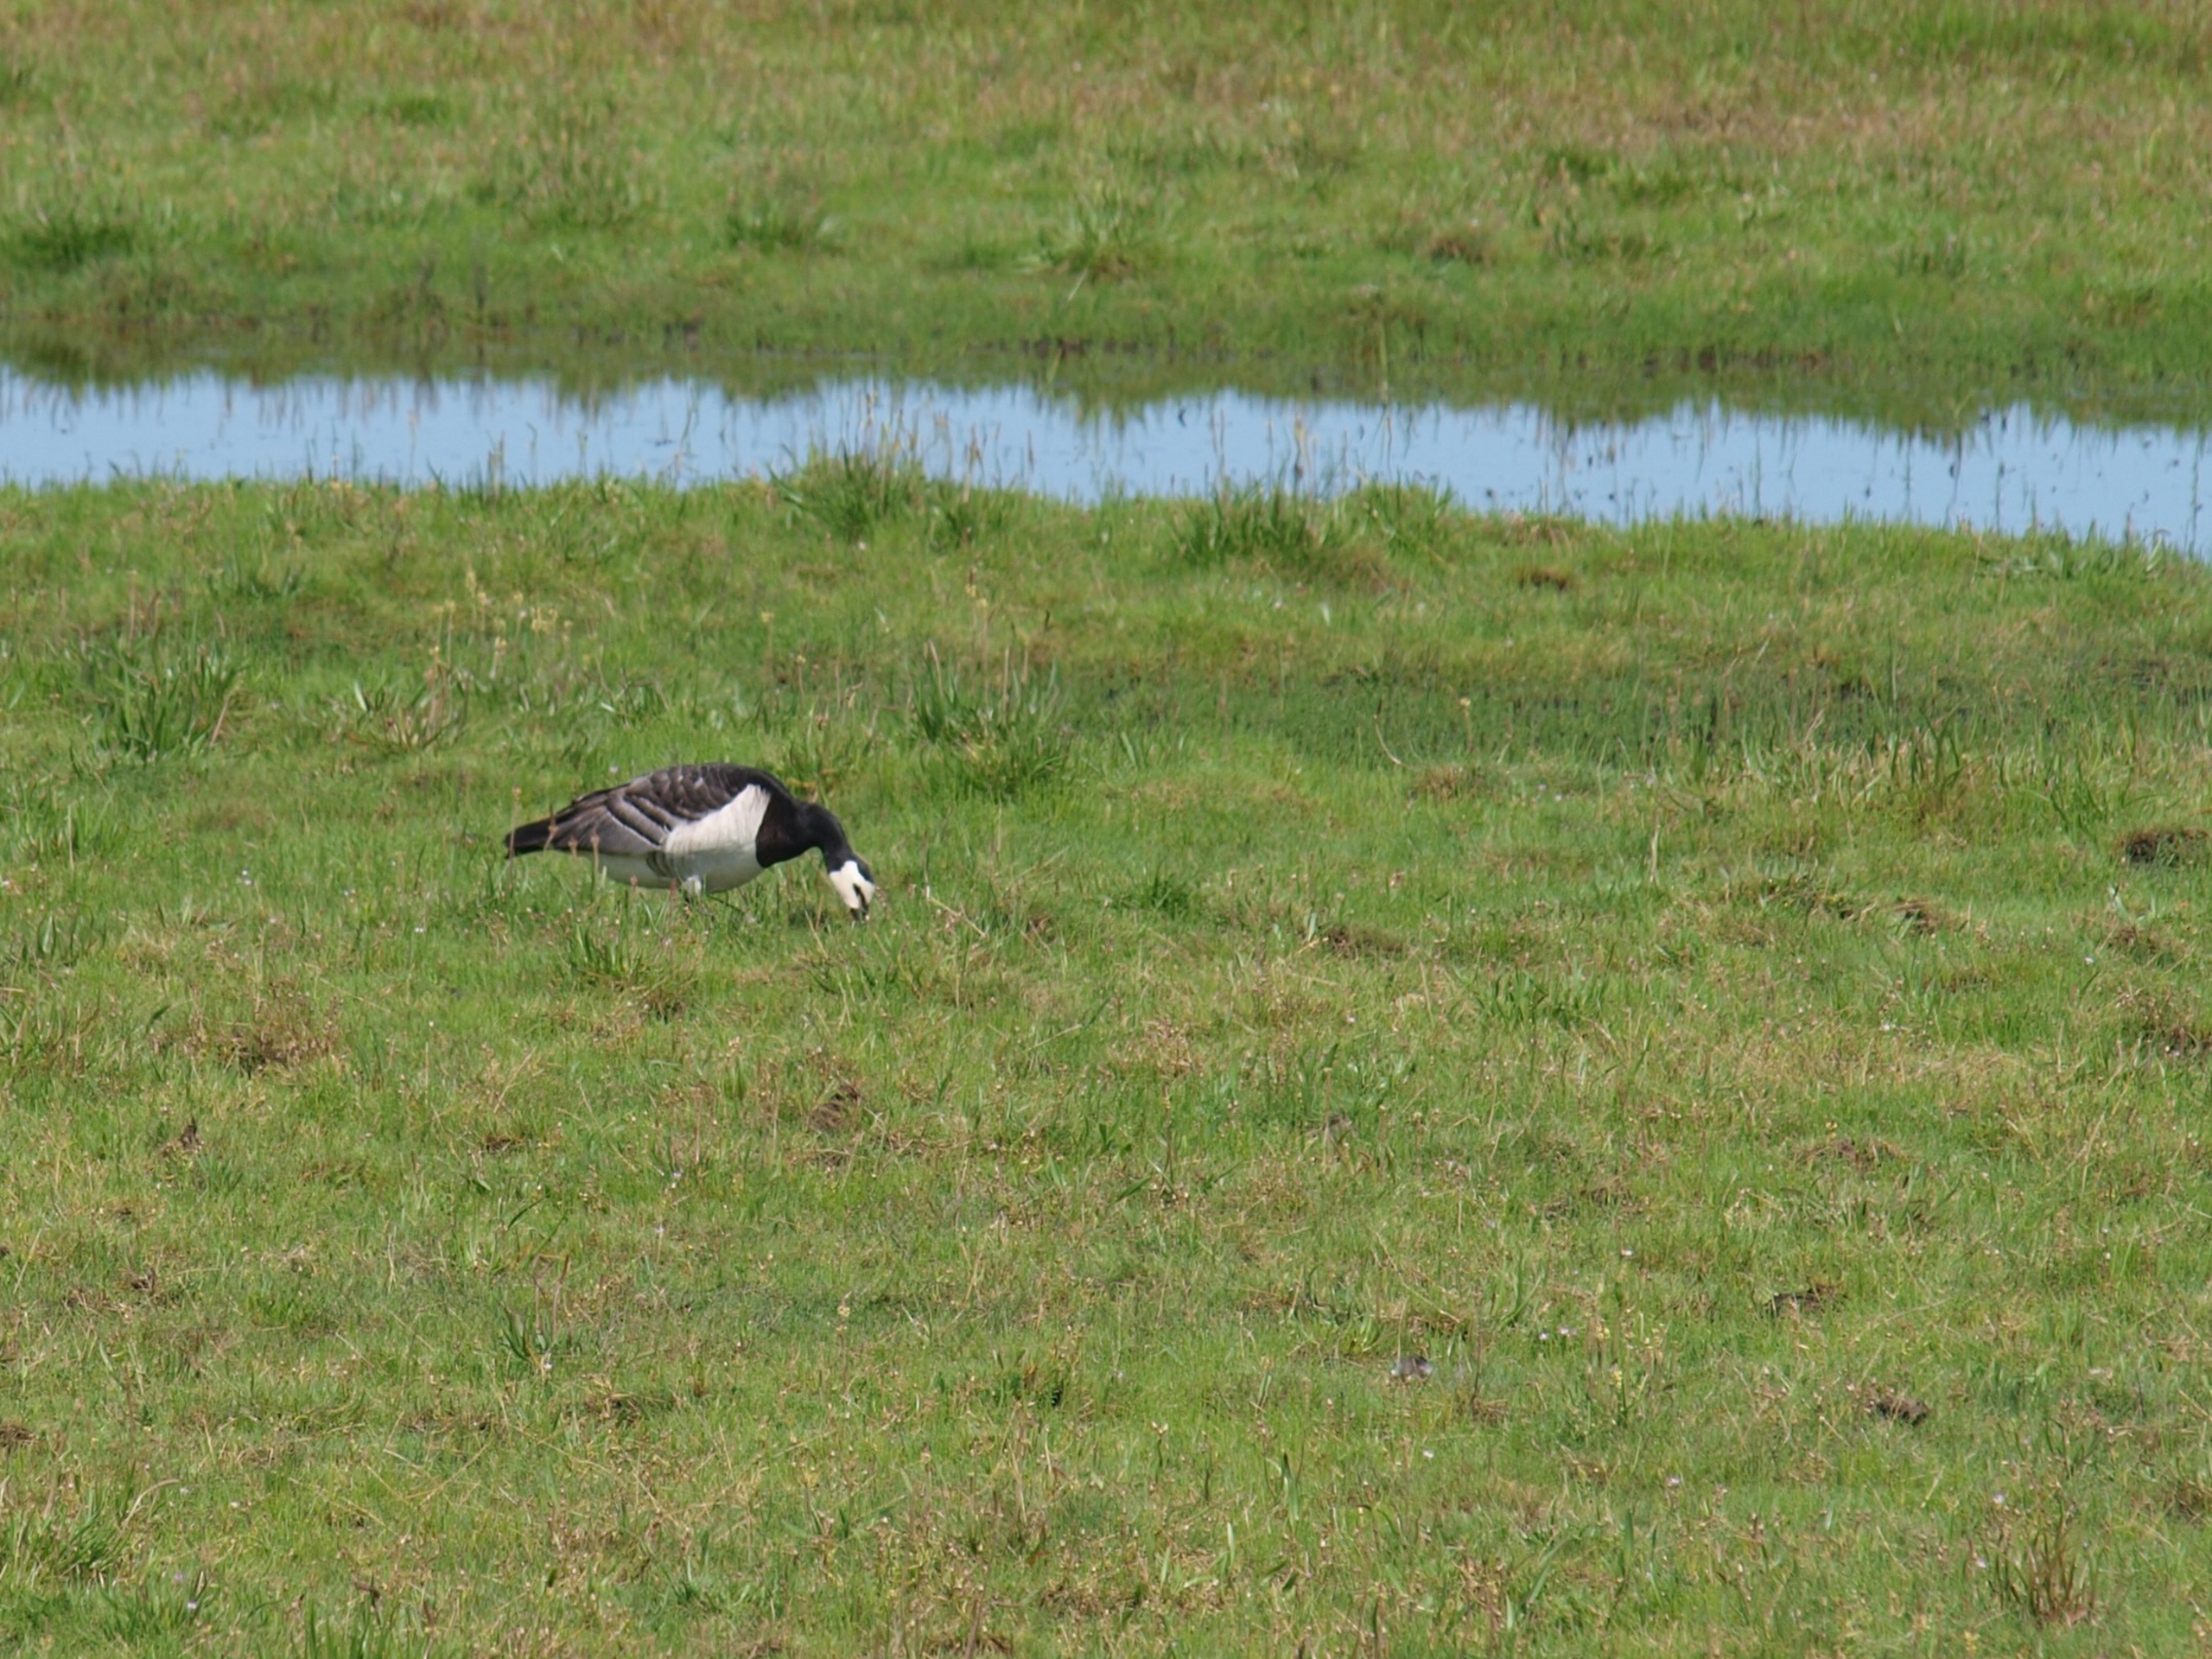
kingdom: Animalia
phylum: Chordata
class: Aves
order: Anseriformes
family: Anatidae
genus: Branta
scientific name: Branta leucopsis
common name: Bramgås
